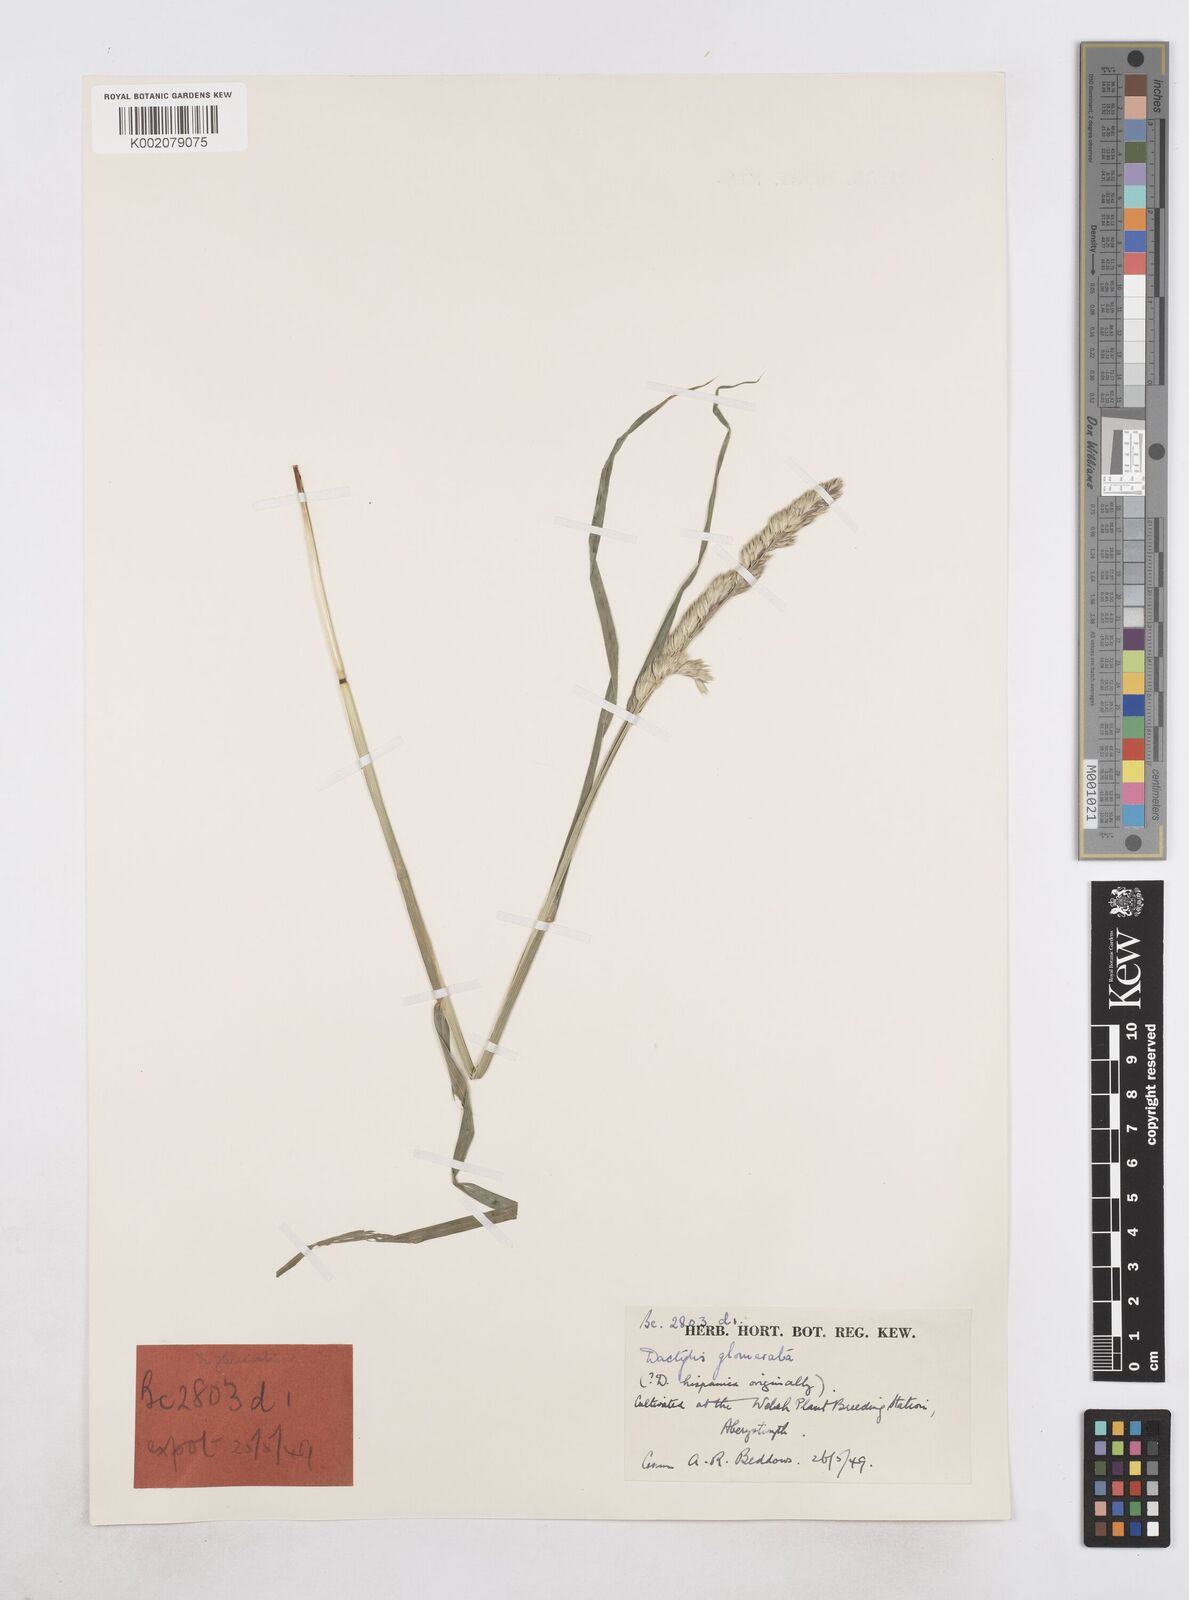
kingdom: Plantae
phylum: Tracheophyta
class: Liliopsida
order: Poales
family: Poaceae
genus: Dactylis
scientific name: Dactylis glomerata
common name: Orchardgrass
